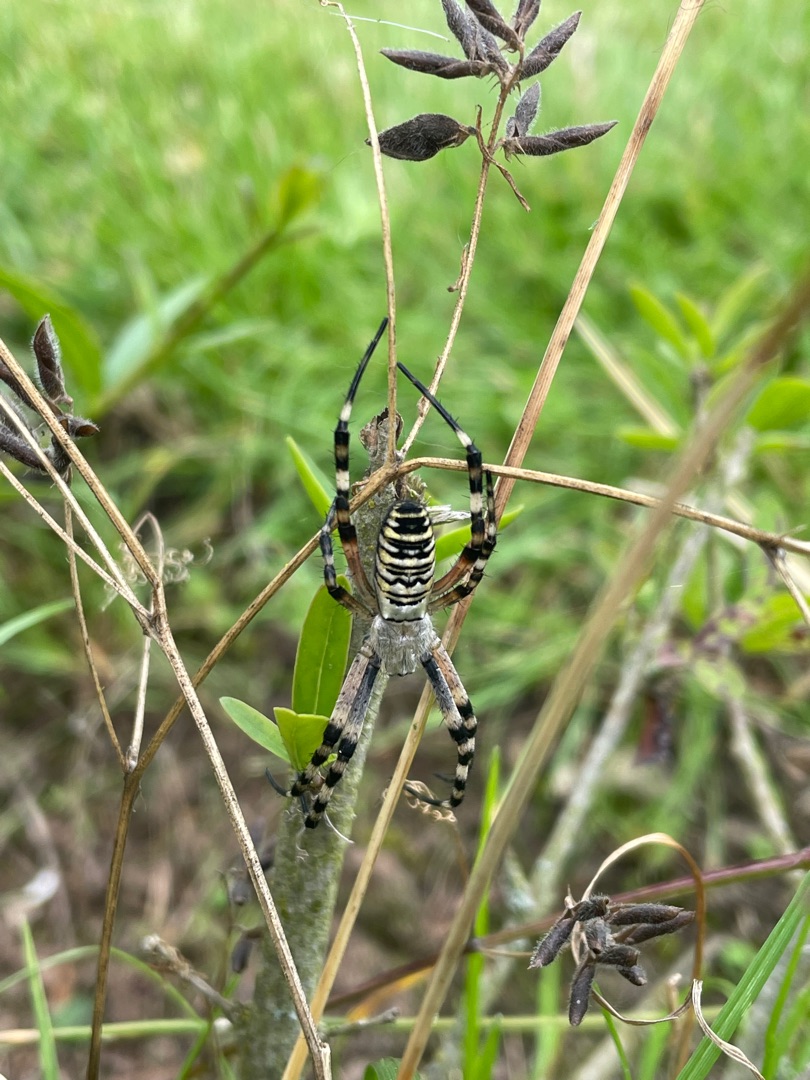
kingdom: Animalia
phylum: Arthropoda
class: Arachnida
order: Araneae
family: Araneidae
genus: Argiope
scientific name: Argiope bruennichi
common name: Hvepseedderkop
